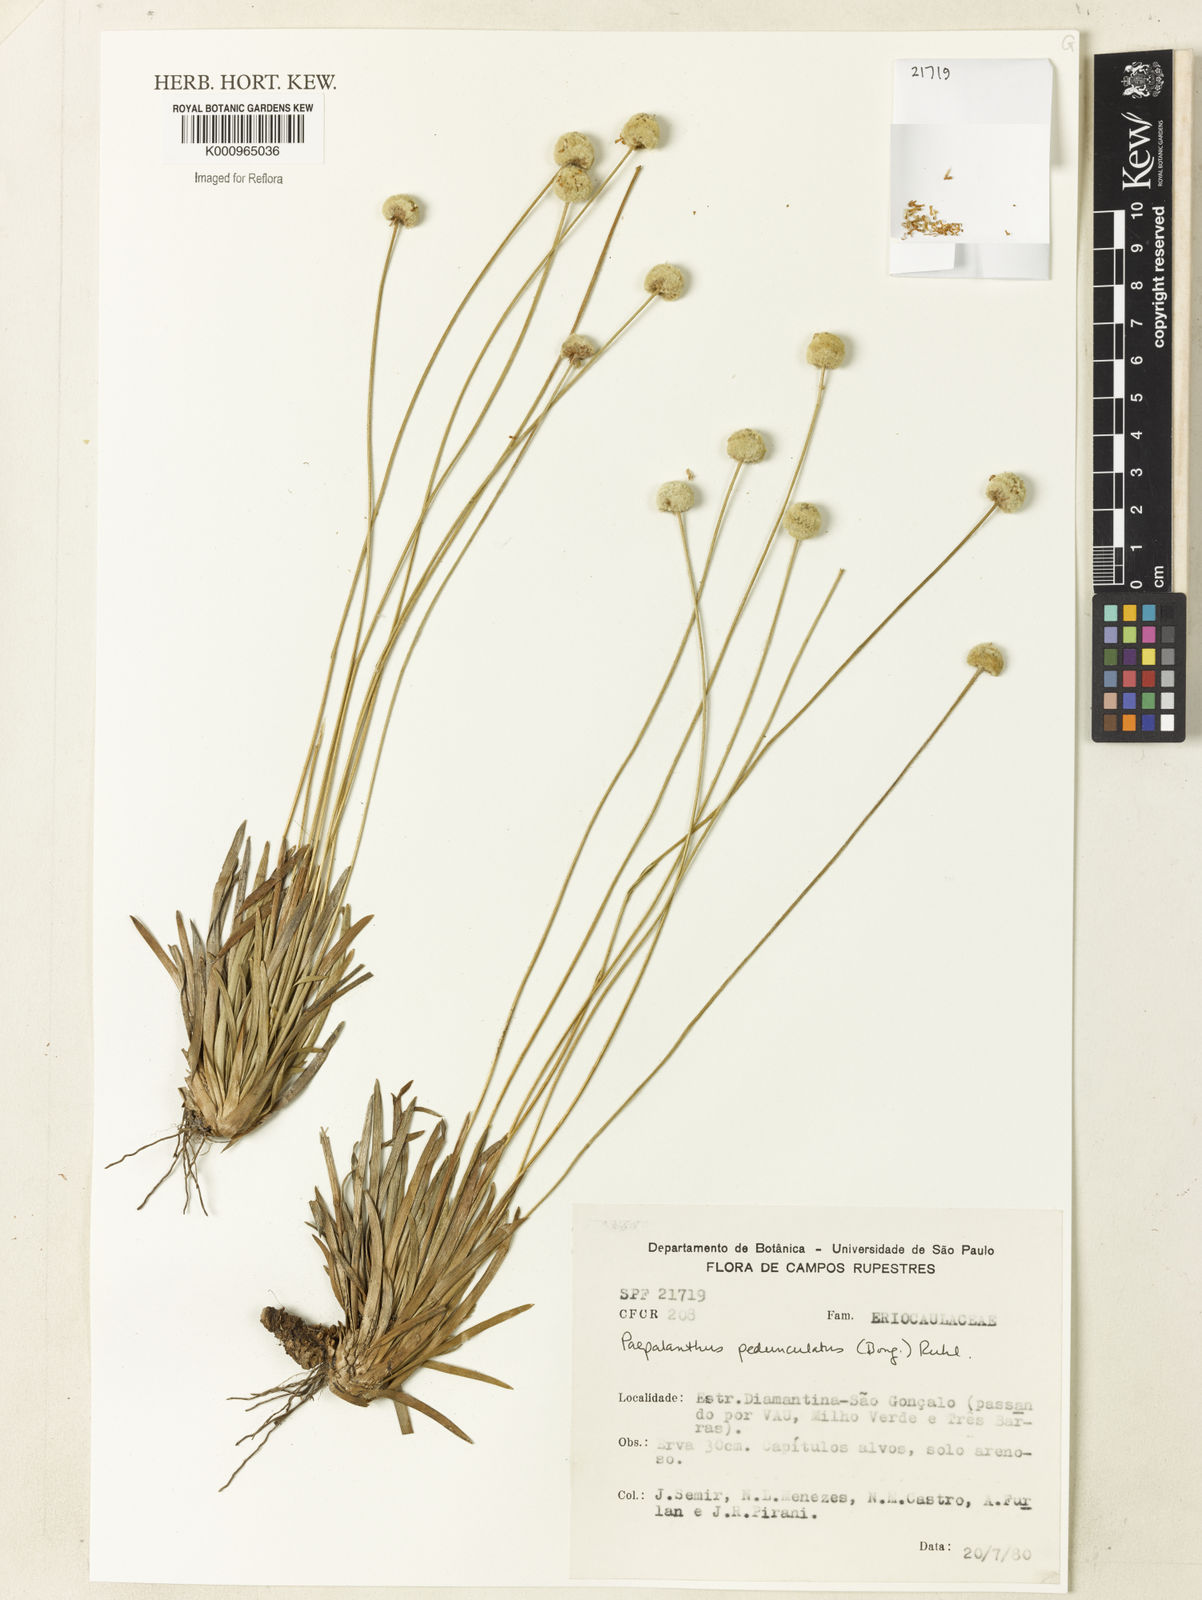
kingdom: Plantae
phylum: Tracheophyta
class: Liliopsida
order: Poales
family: Eriocaulaceae
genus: Paepalanthus
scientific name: Paepalanthus
